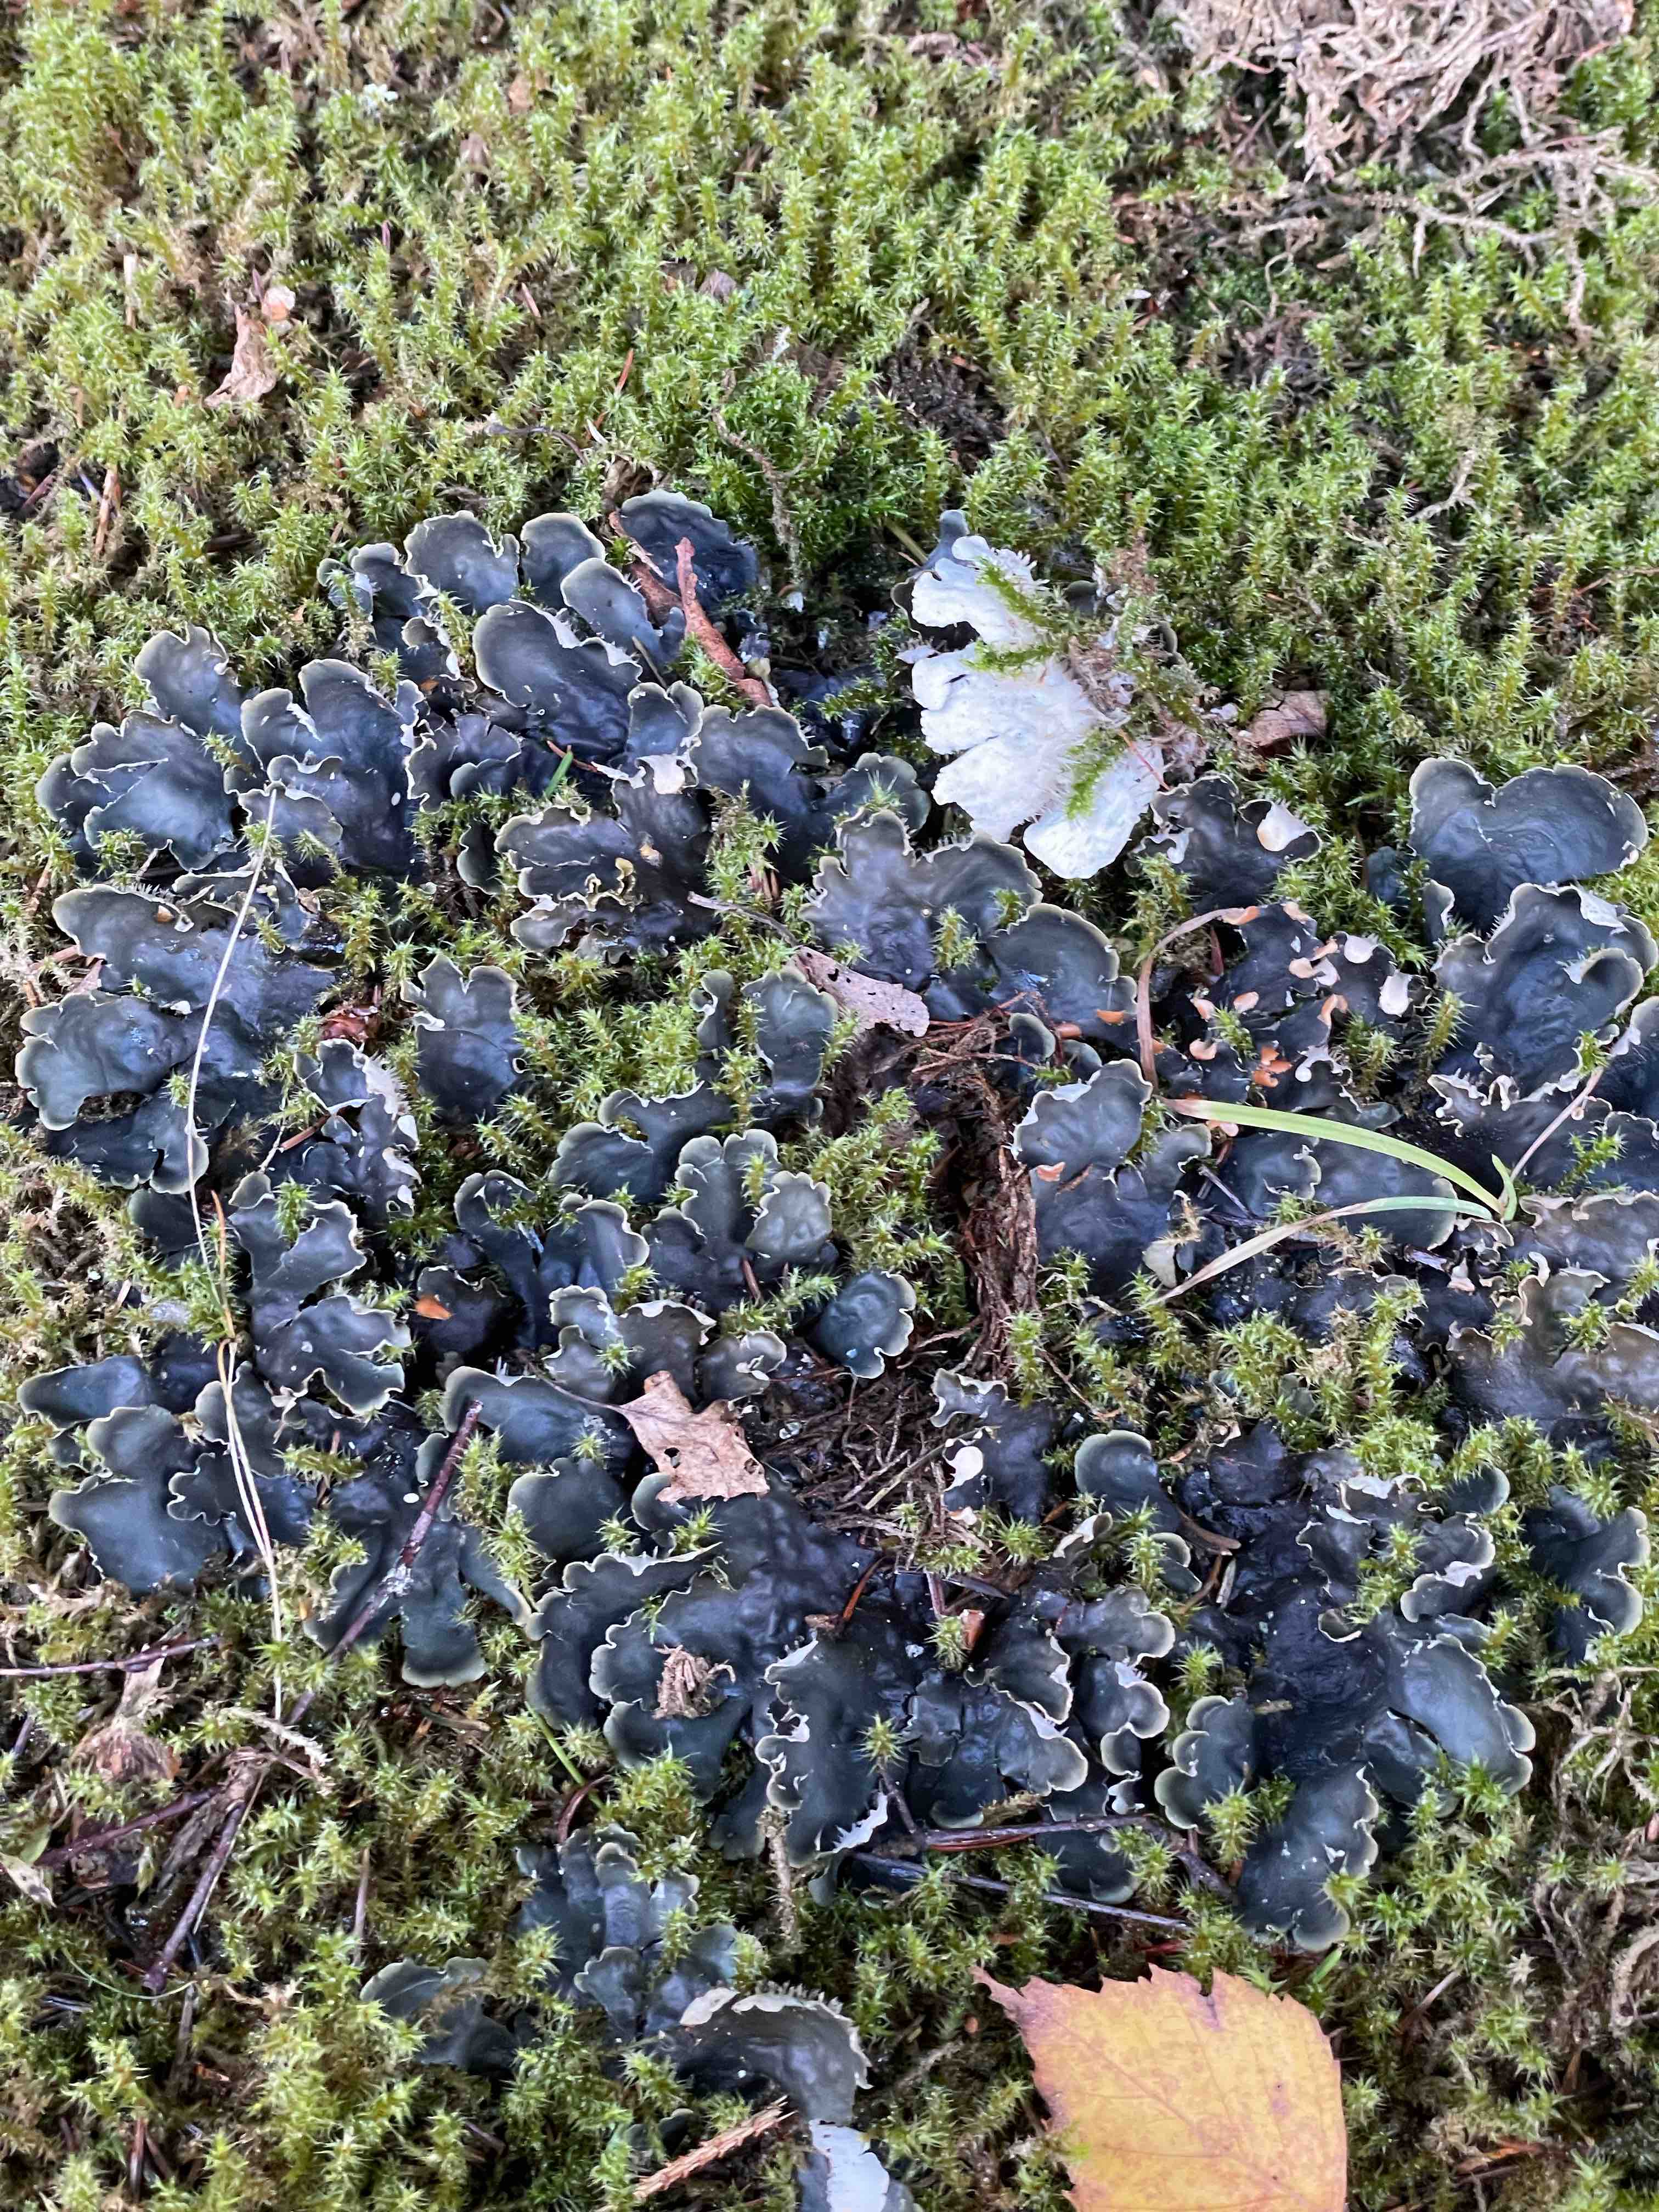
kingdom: Fungi
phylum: Ascomycota
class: Lecanoromycetes
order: Peltigerales
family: Peltigeraceae
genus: Peltigera
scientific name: Peltigera hymenina
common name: hinde-skjoldlav
